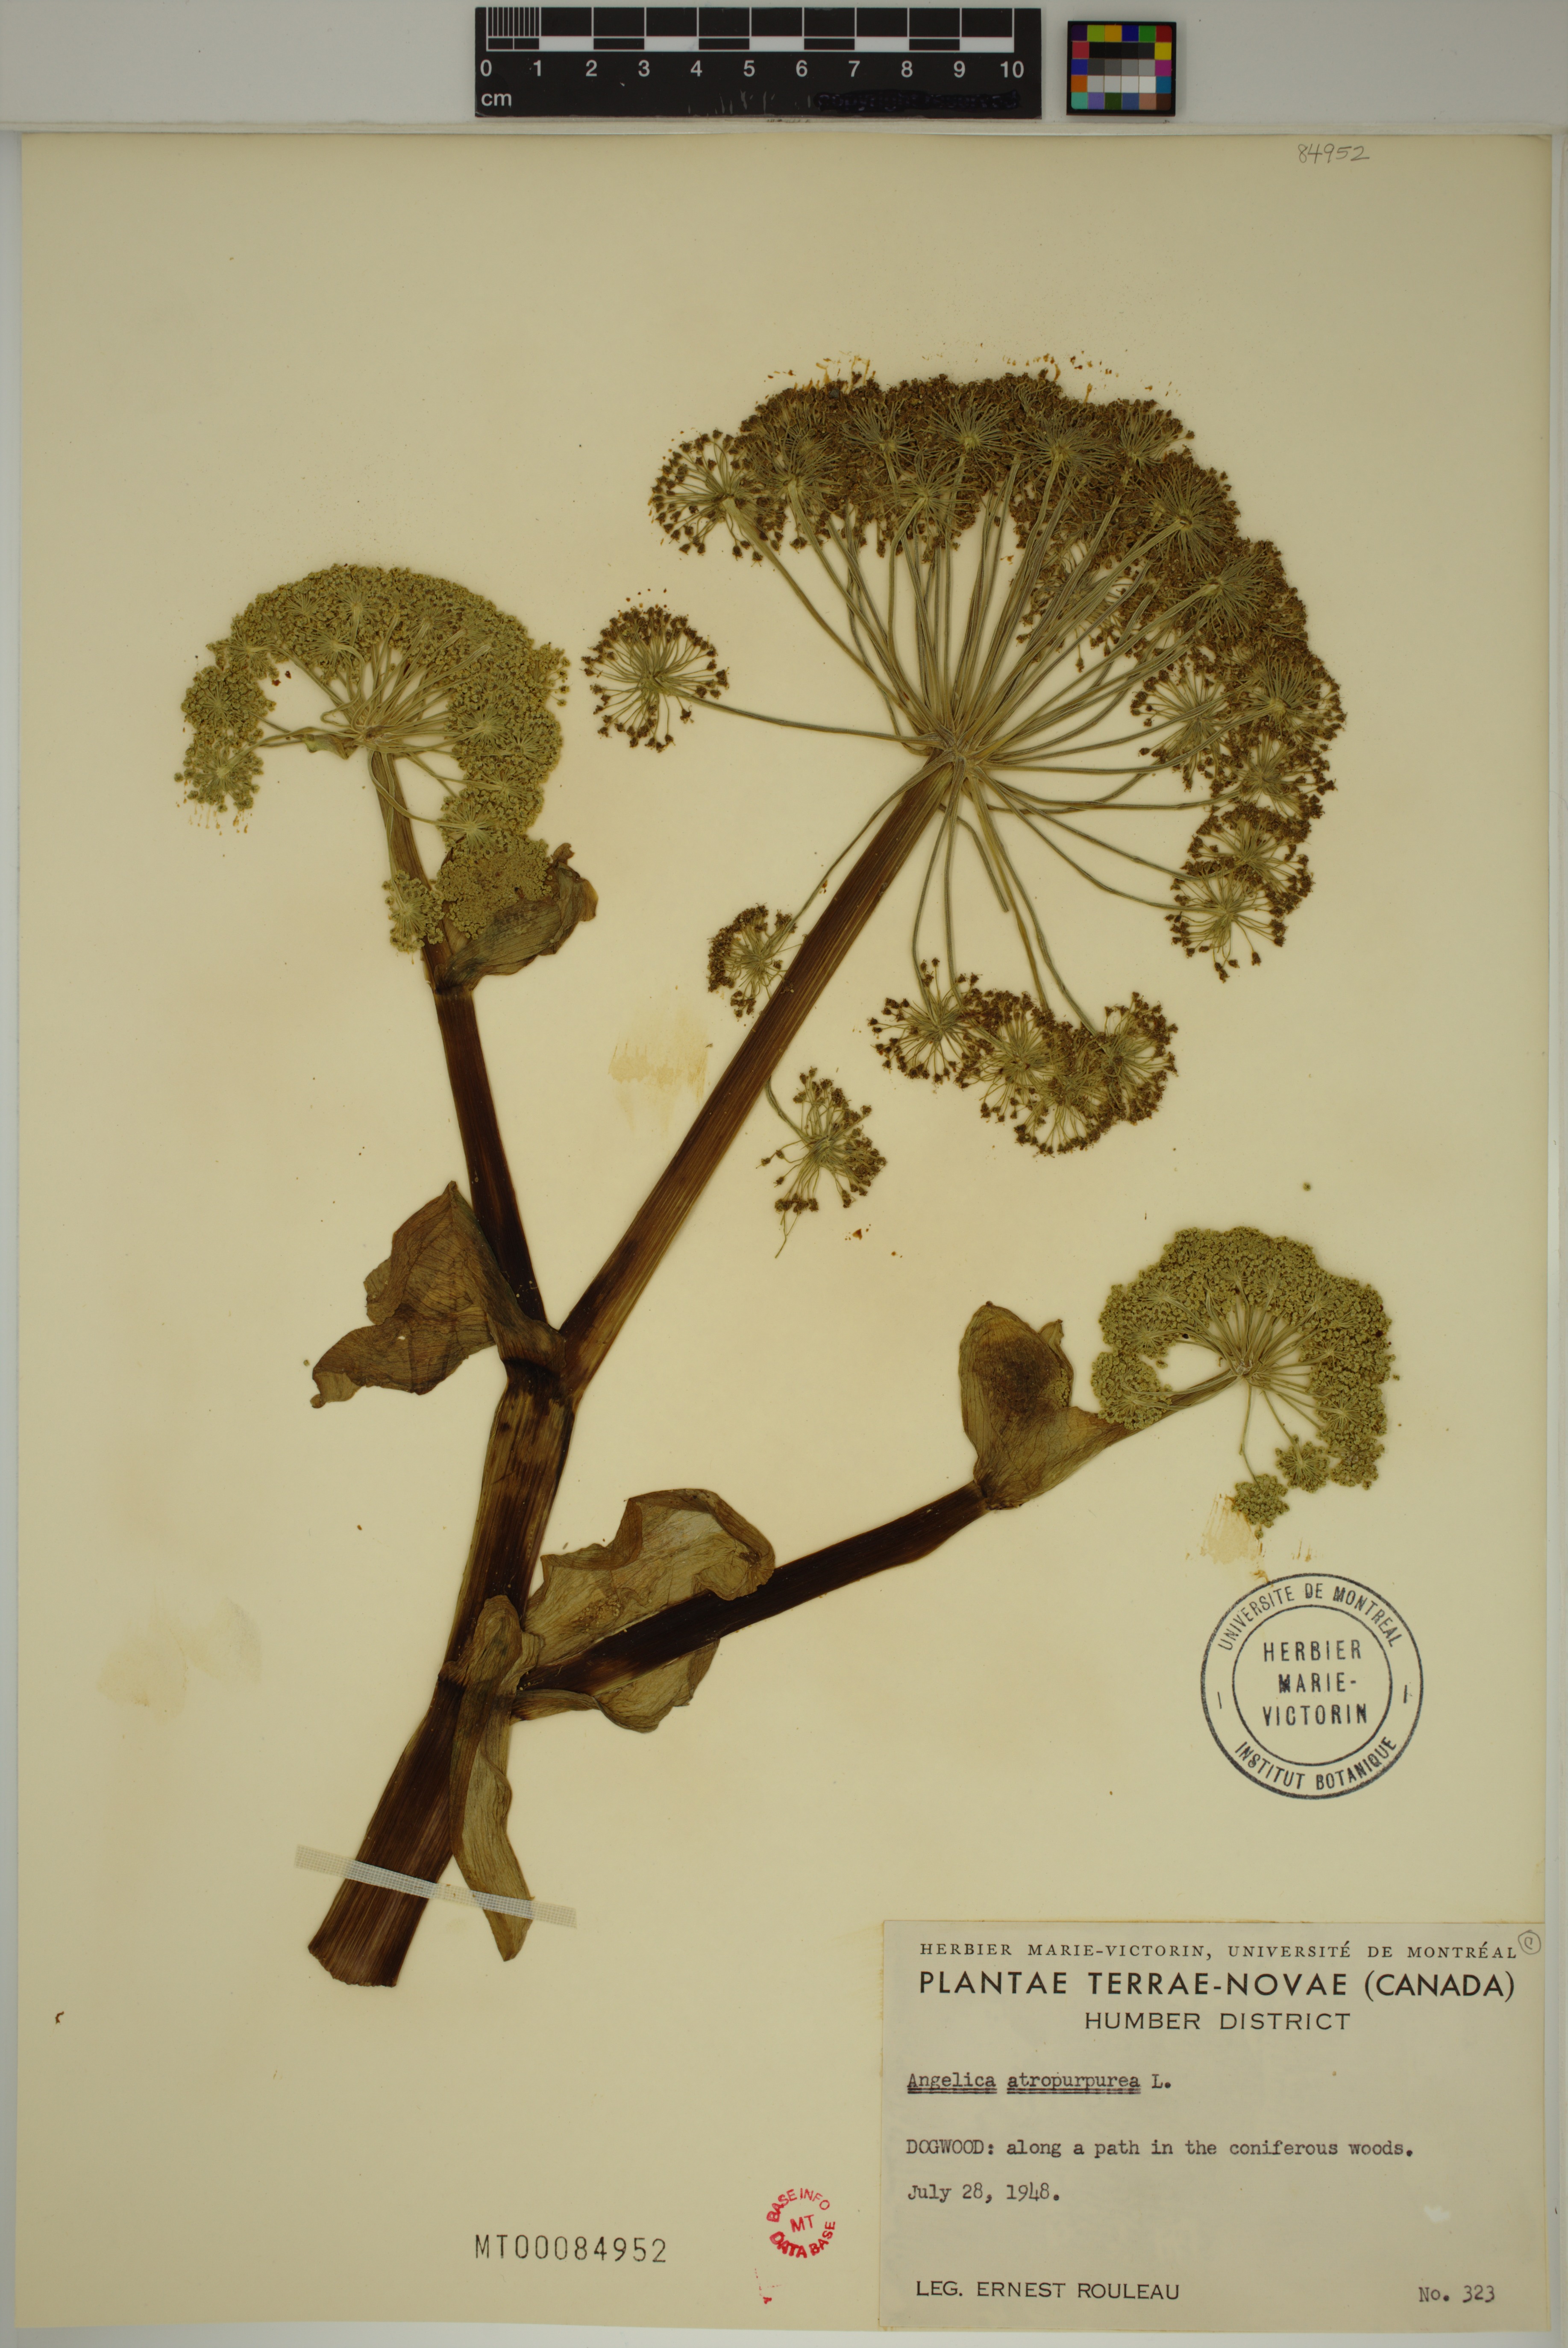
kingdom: Plantae
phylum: Tracheophyta
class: Magnoliopsida
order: Apiales
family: Apiaceae
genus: Angelica
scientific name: Angelica atropurpurea
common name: Great angelica
